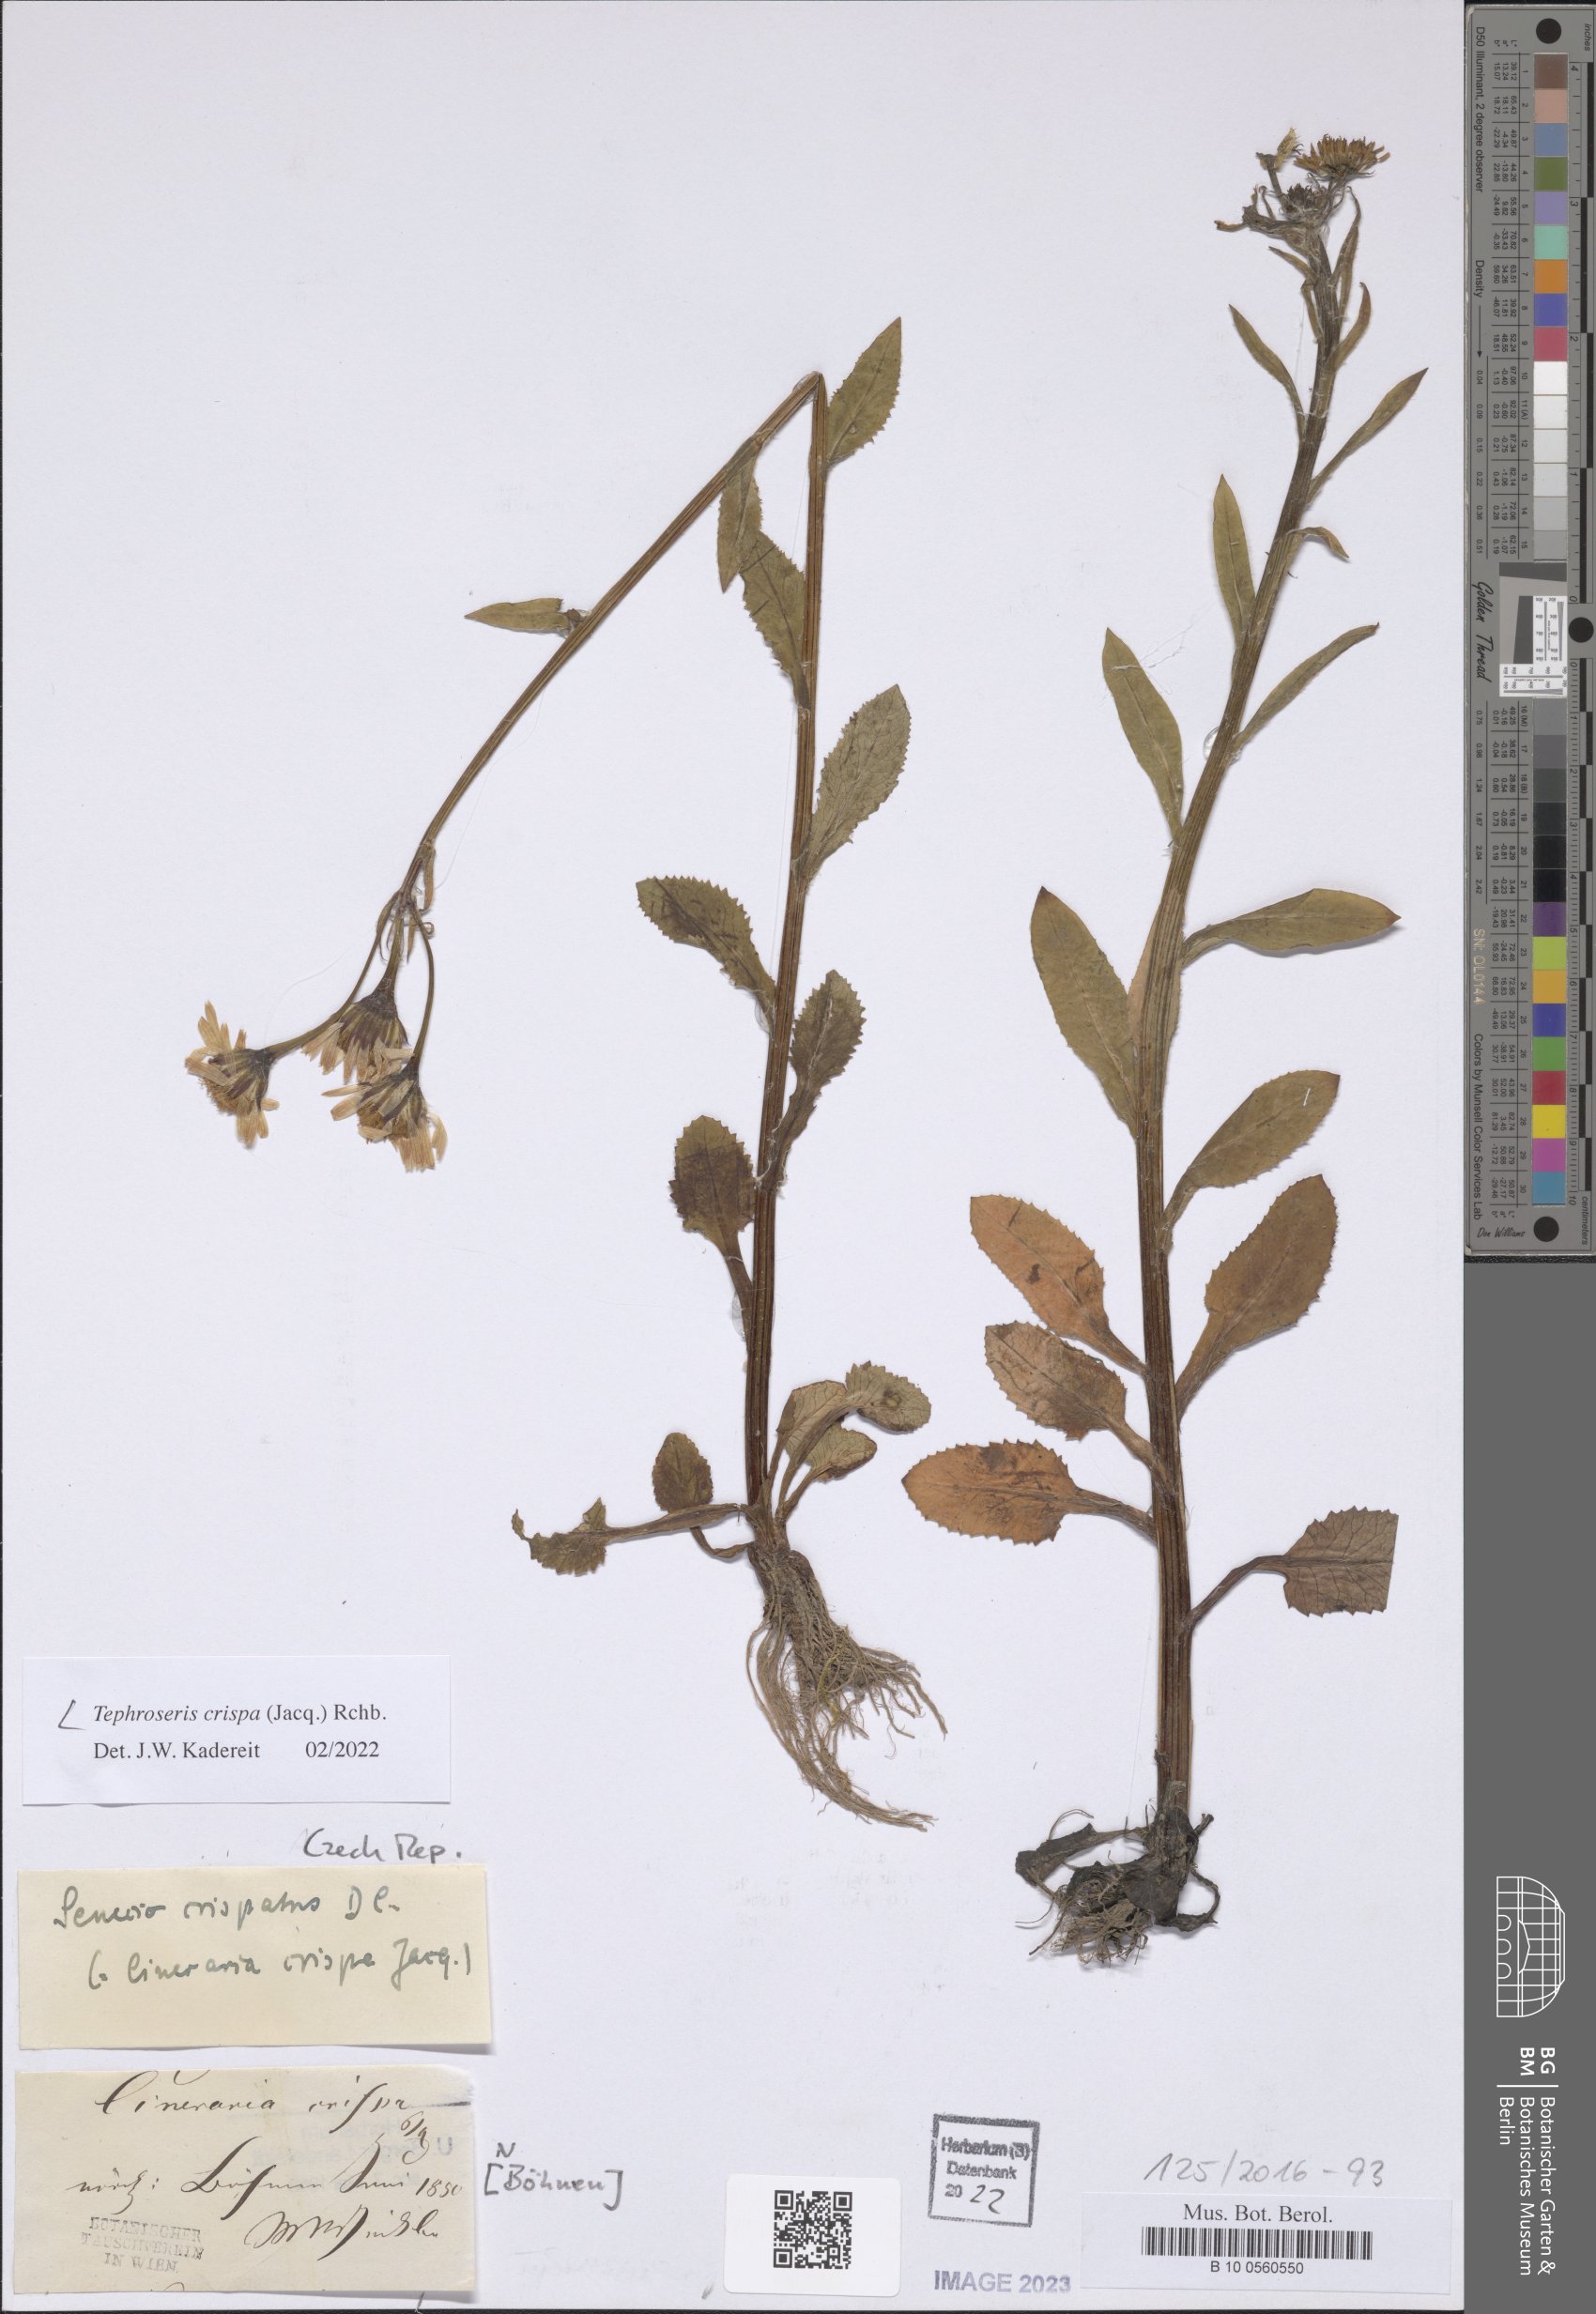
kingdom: Plantae
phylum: Tracheophyta
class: Magnoliopsida
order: Asterales
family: Asteraceae
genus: Tephroseris
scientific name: Tephroseris crispa
